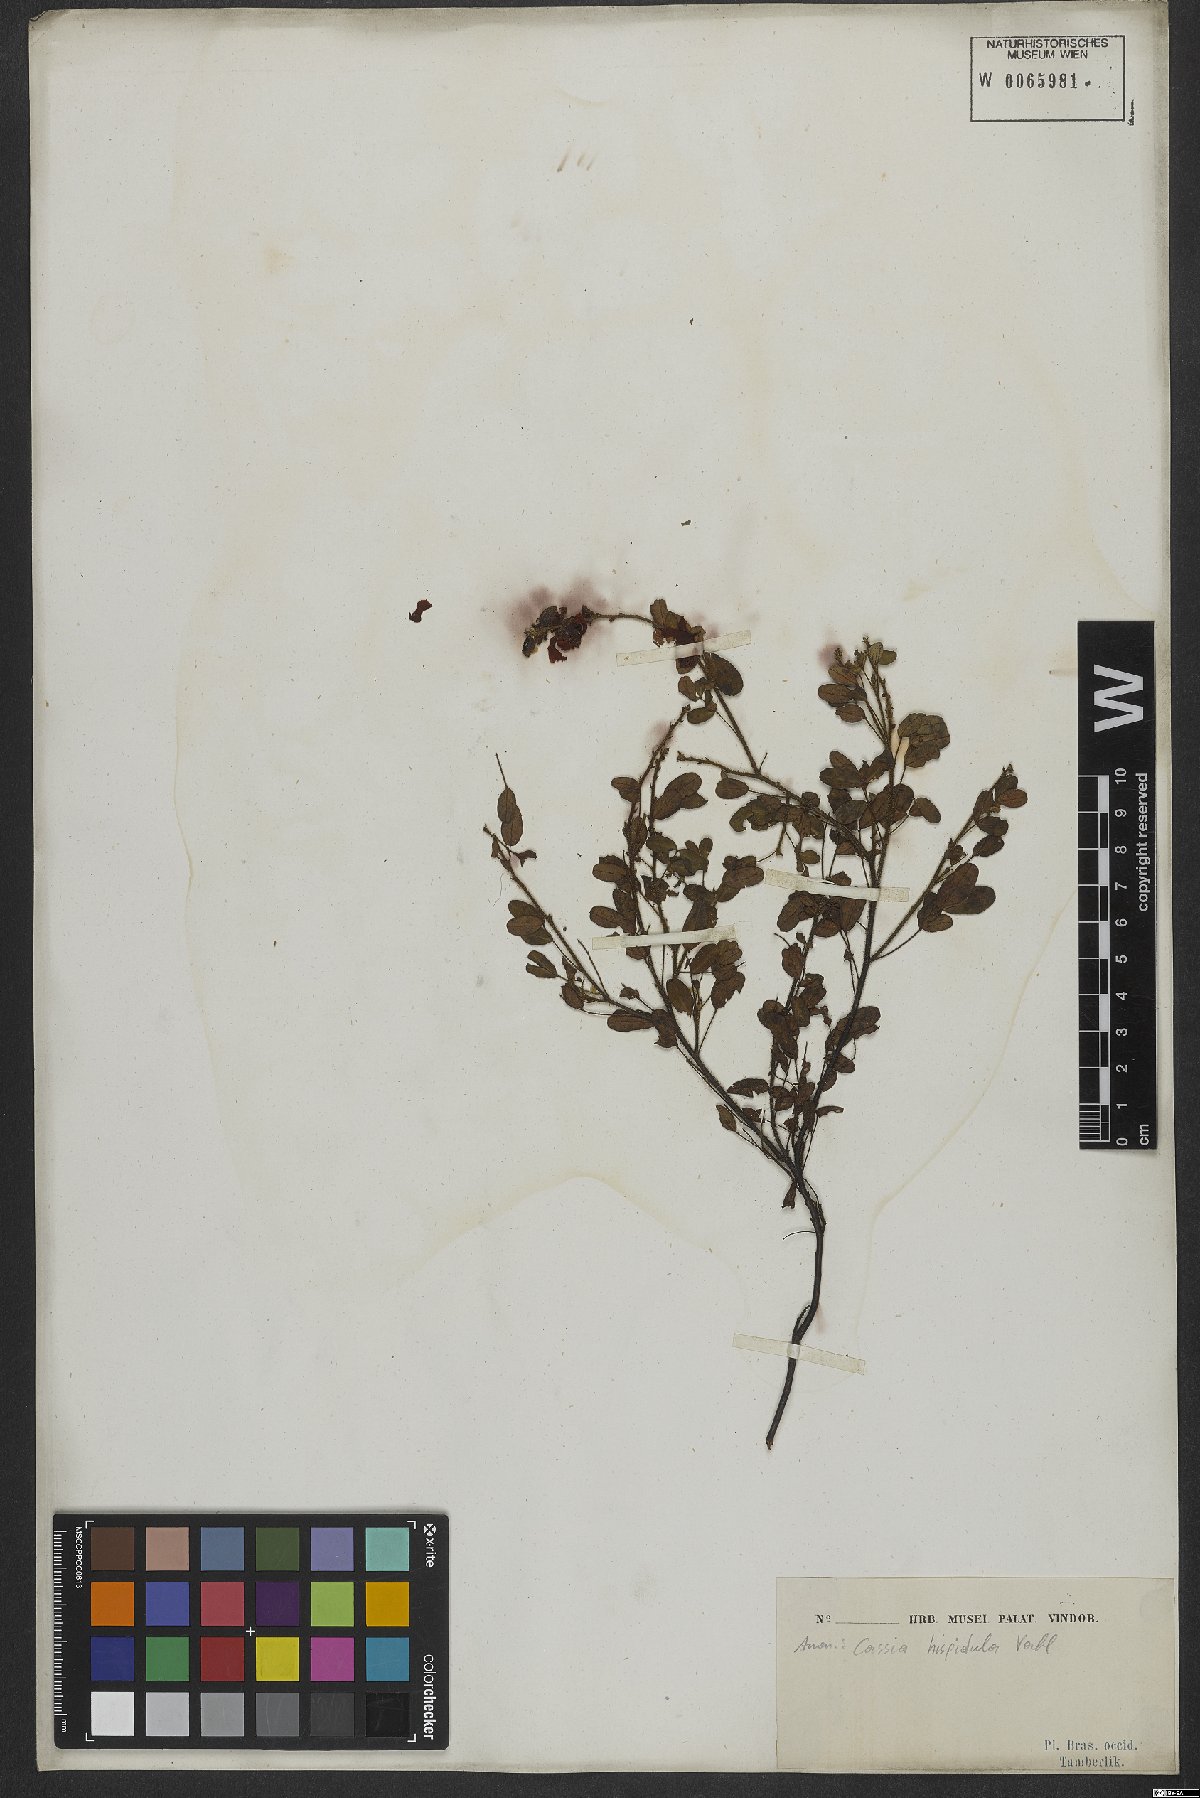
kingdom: Plantae
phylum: Tracheophyta
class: Magnoliopsida
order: Fabales
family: Fabaceae
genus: Chamaecrista
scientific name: Chamaecrista hispidula
